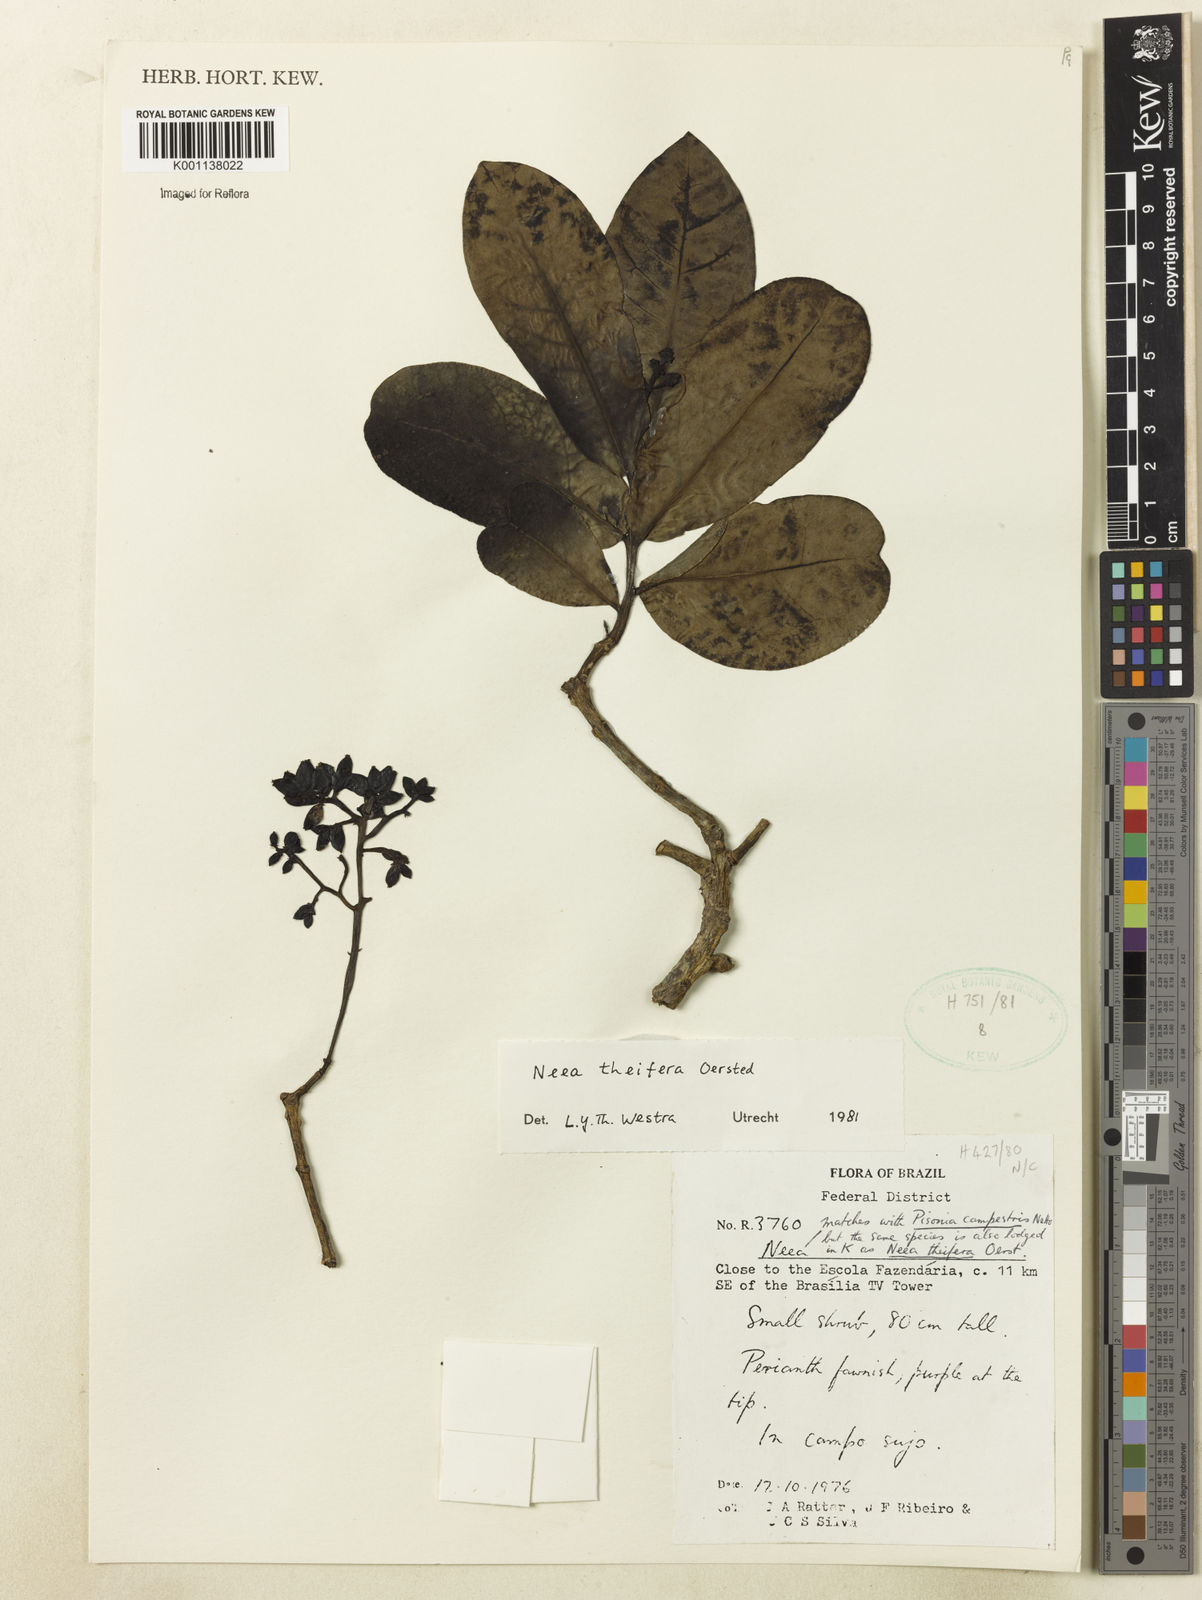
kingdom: Plantae
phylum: Tracheophyta
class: Magnoliopsida
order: Caryophyllales
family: Nyctaginaceae
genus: Neea
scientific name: Neea theifera
